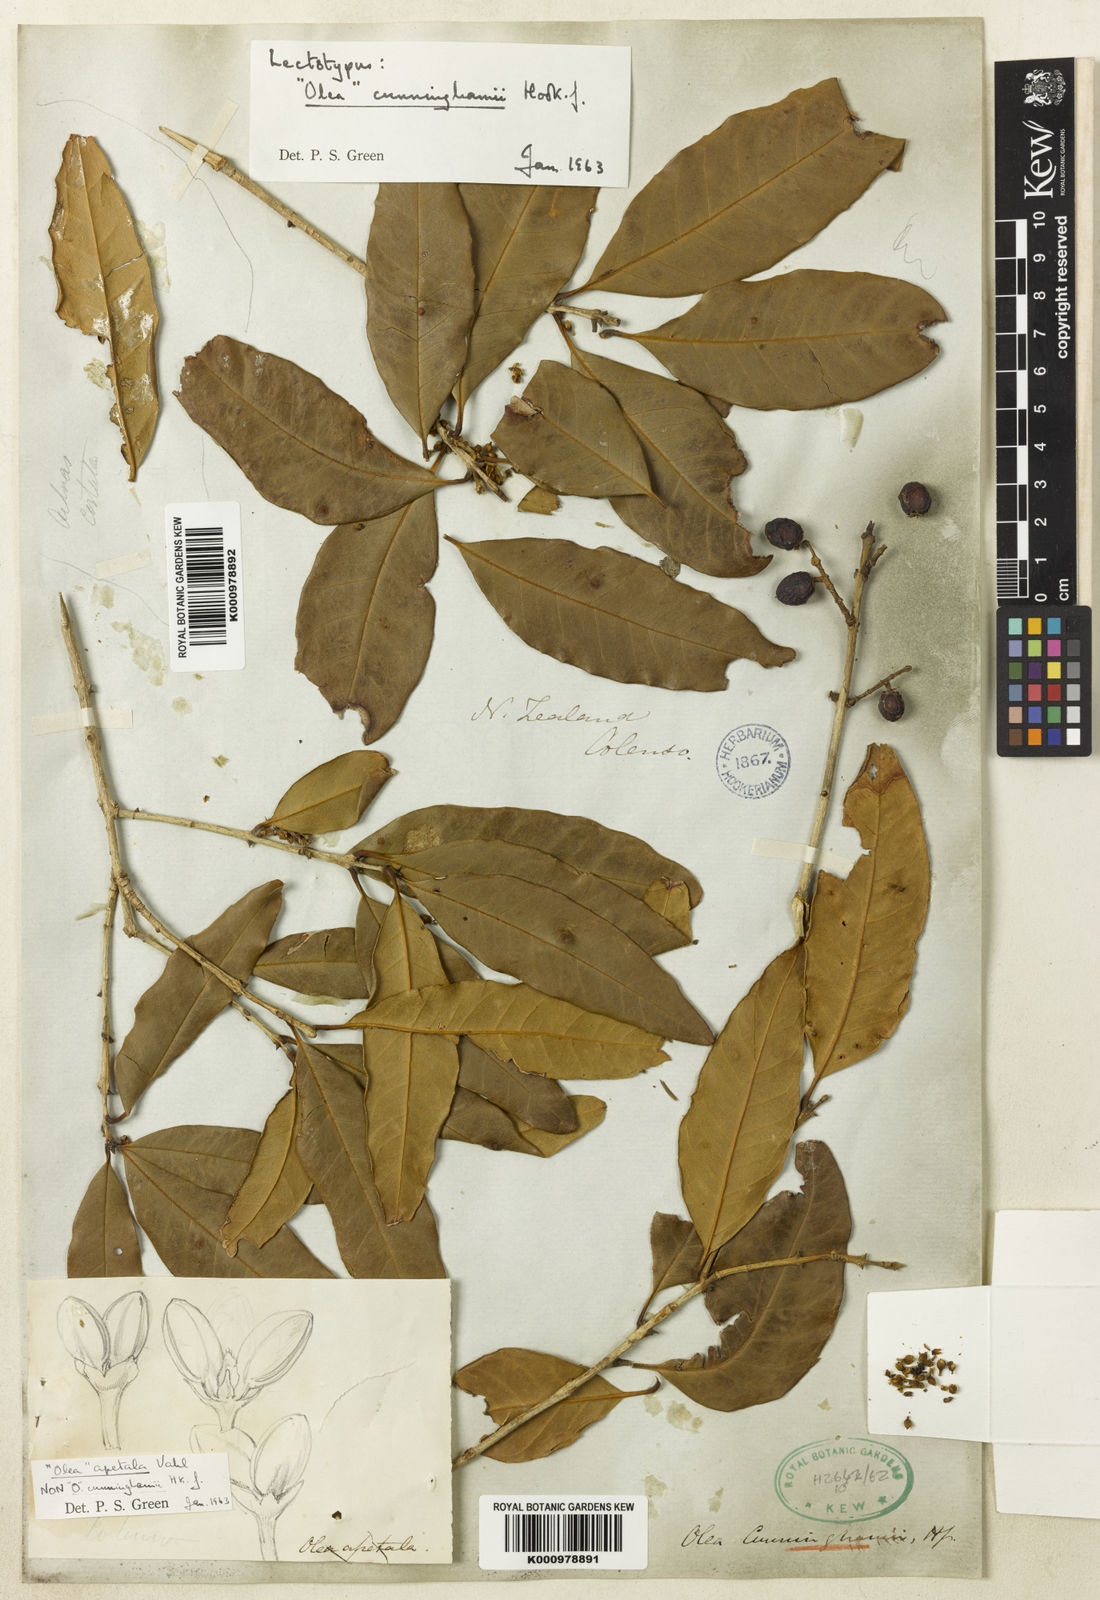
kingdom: Plantae
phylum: Tracheophyta
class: Magnoliopsida
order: Lamiales
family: Oleaceae
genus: Nestegis
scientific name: Nestegis cunninghamii
